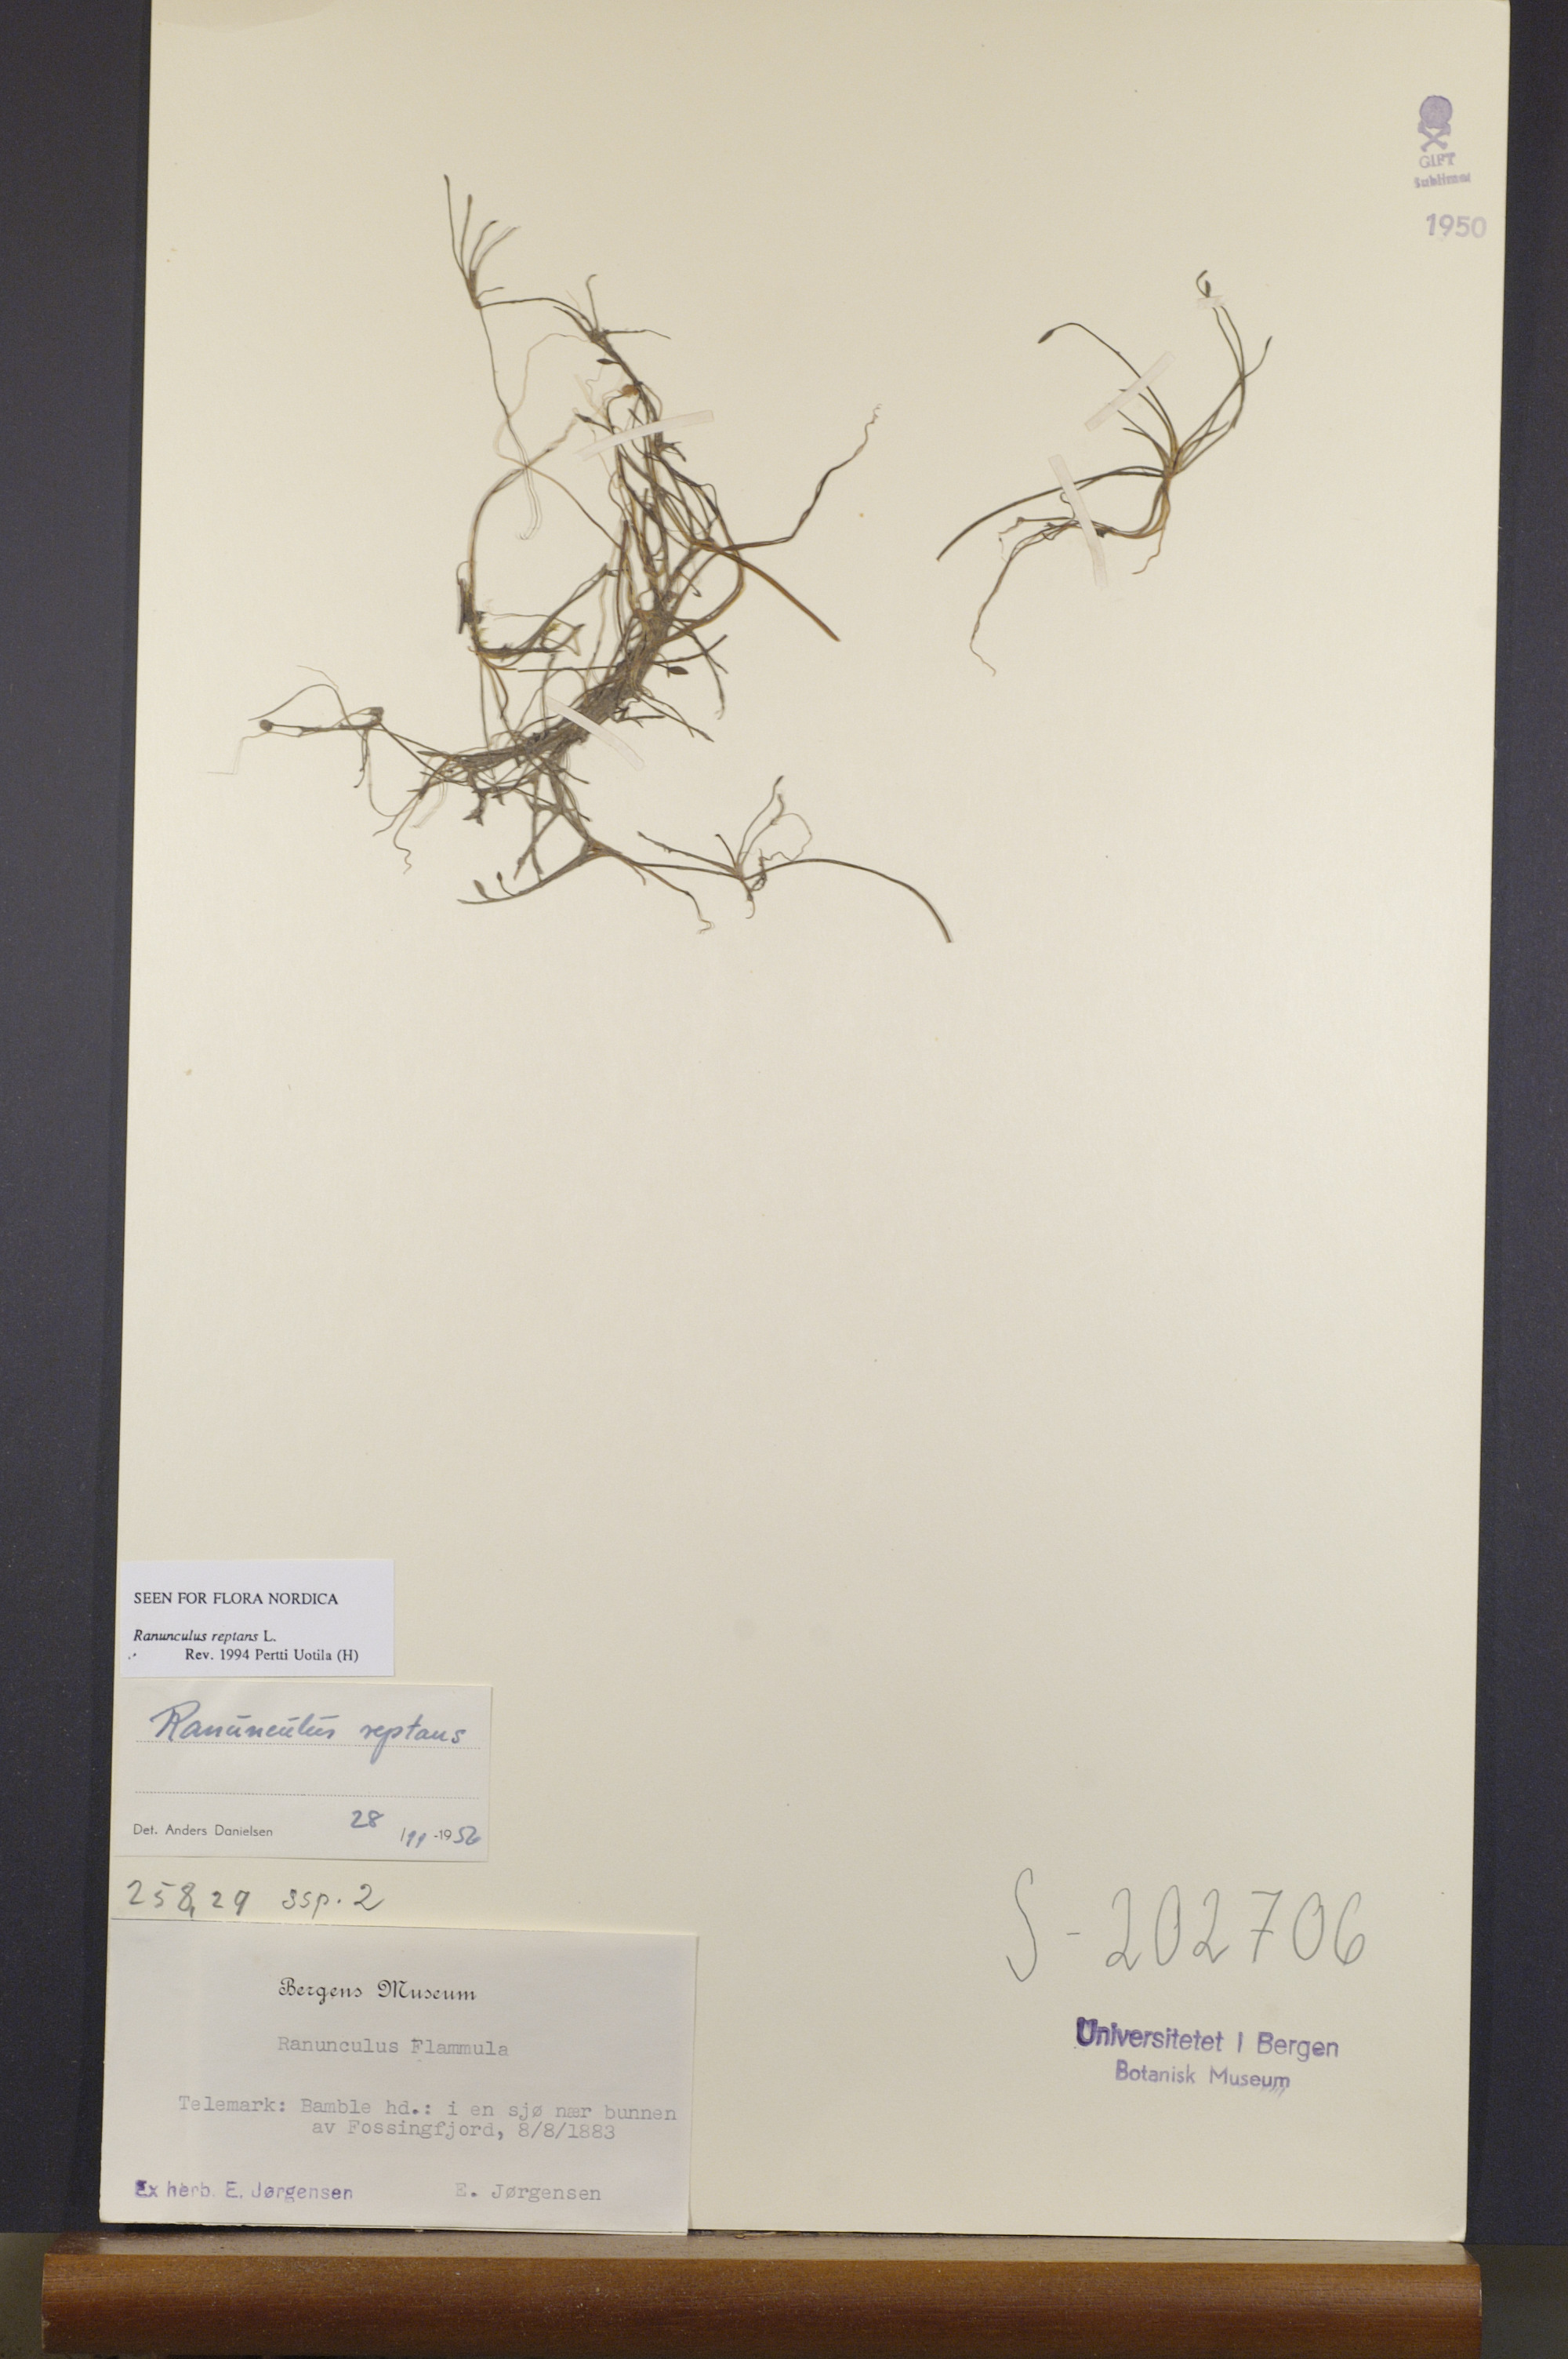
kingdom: Plantae
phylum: Tracheophyta
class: Magnoliopsida
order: Ranunculales
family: Ranunculaceae
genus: Ranunculus
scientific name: Ranunculus reptans
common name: Creeping spearwort
